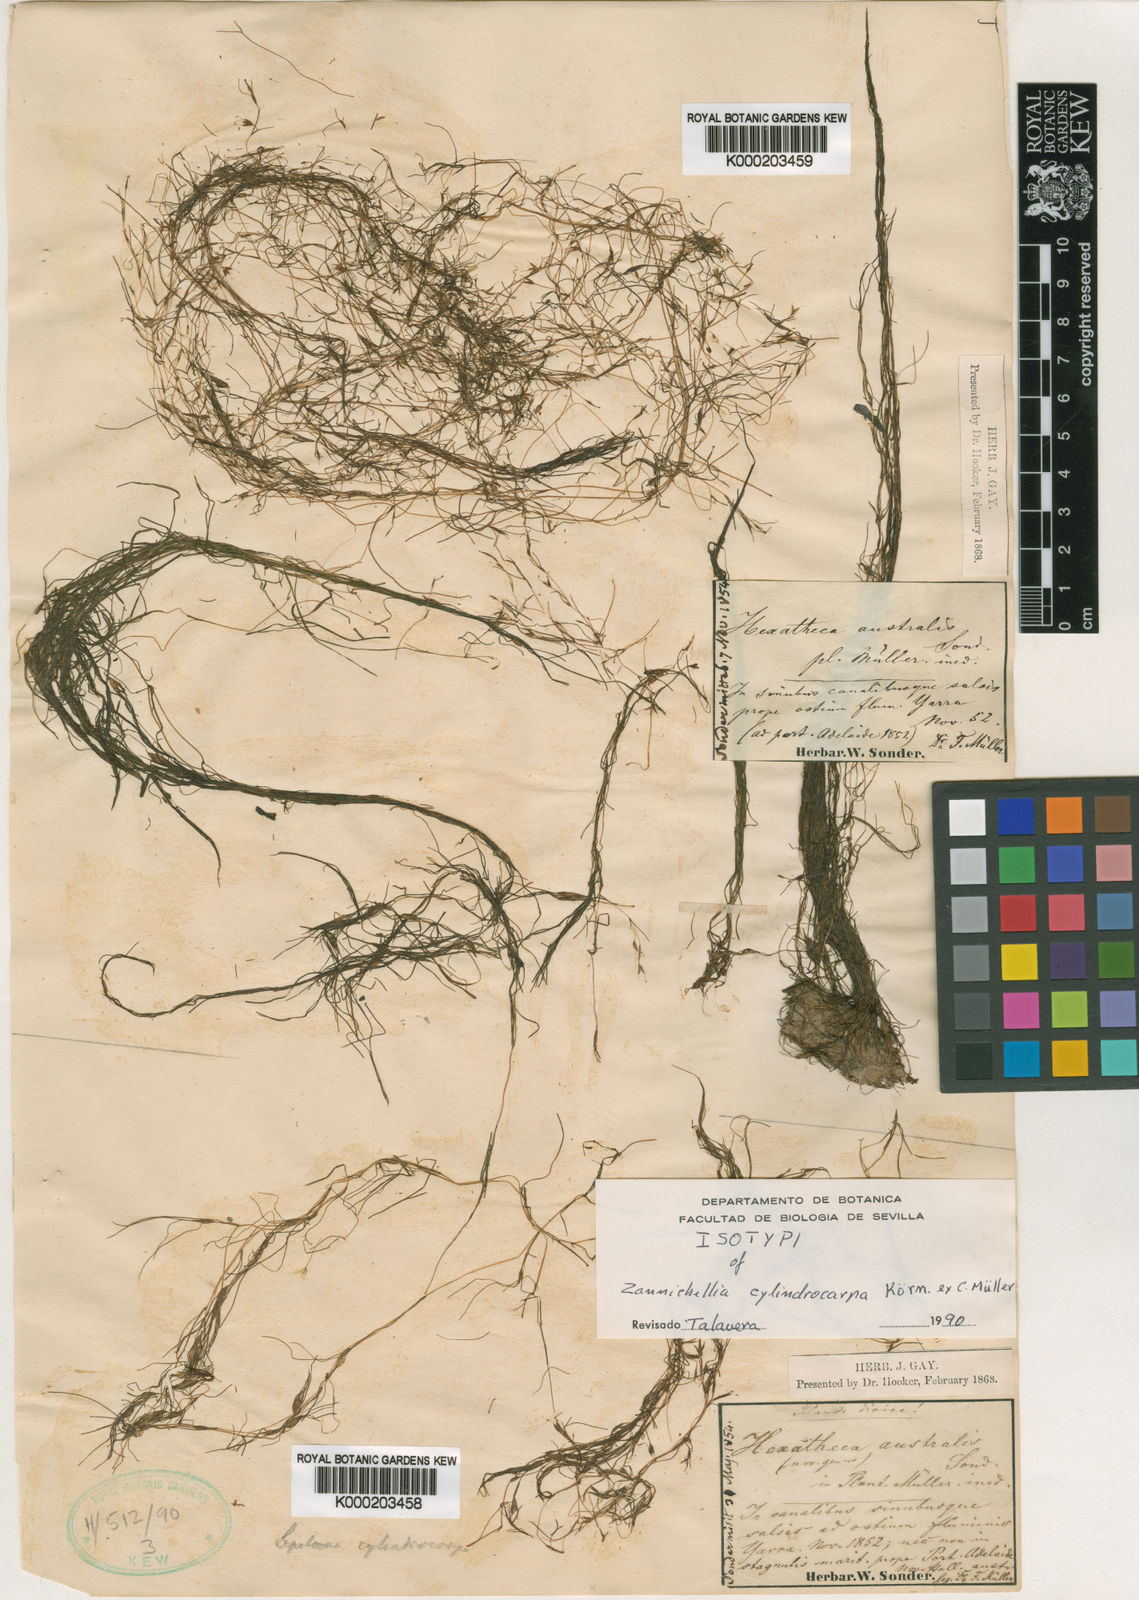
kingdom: Plantae
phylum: Tracheophyta
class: Liliopsida
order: Alismatales
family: Potamogetonaceae
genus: Zannichellia
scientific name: Zannichellia
